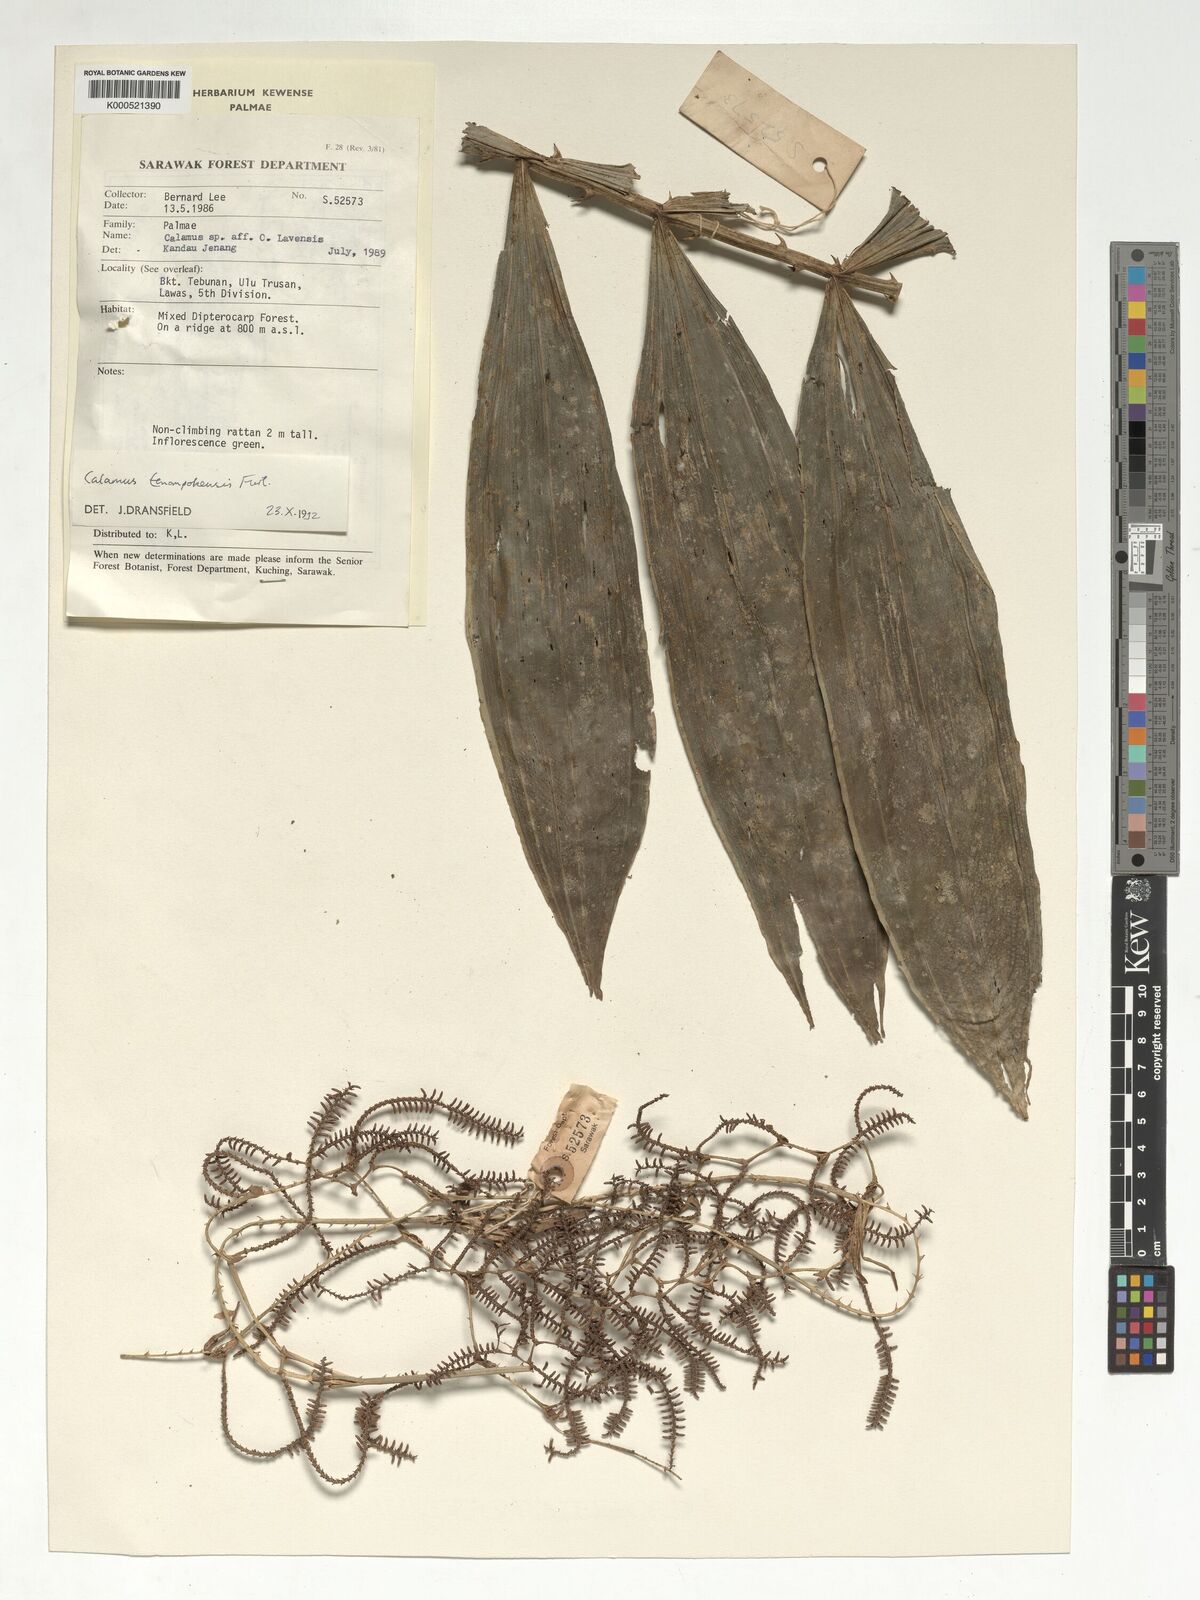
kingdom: Plantae
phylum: Tracheophyta
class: Liliopsida
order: Arecales
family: Arecaceae
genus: Calamus
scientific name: Calamus tenompokensis
